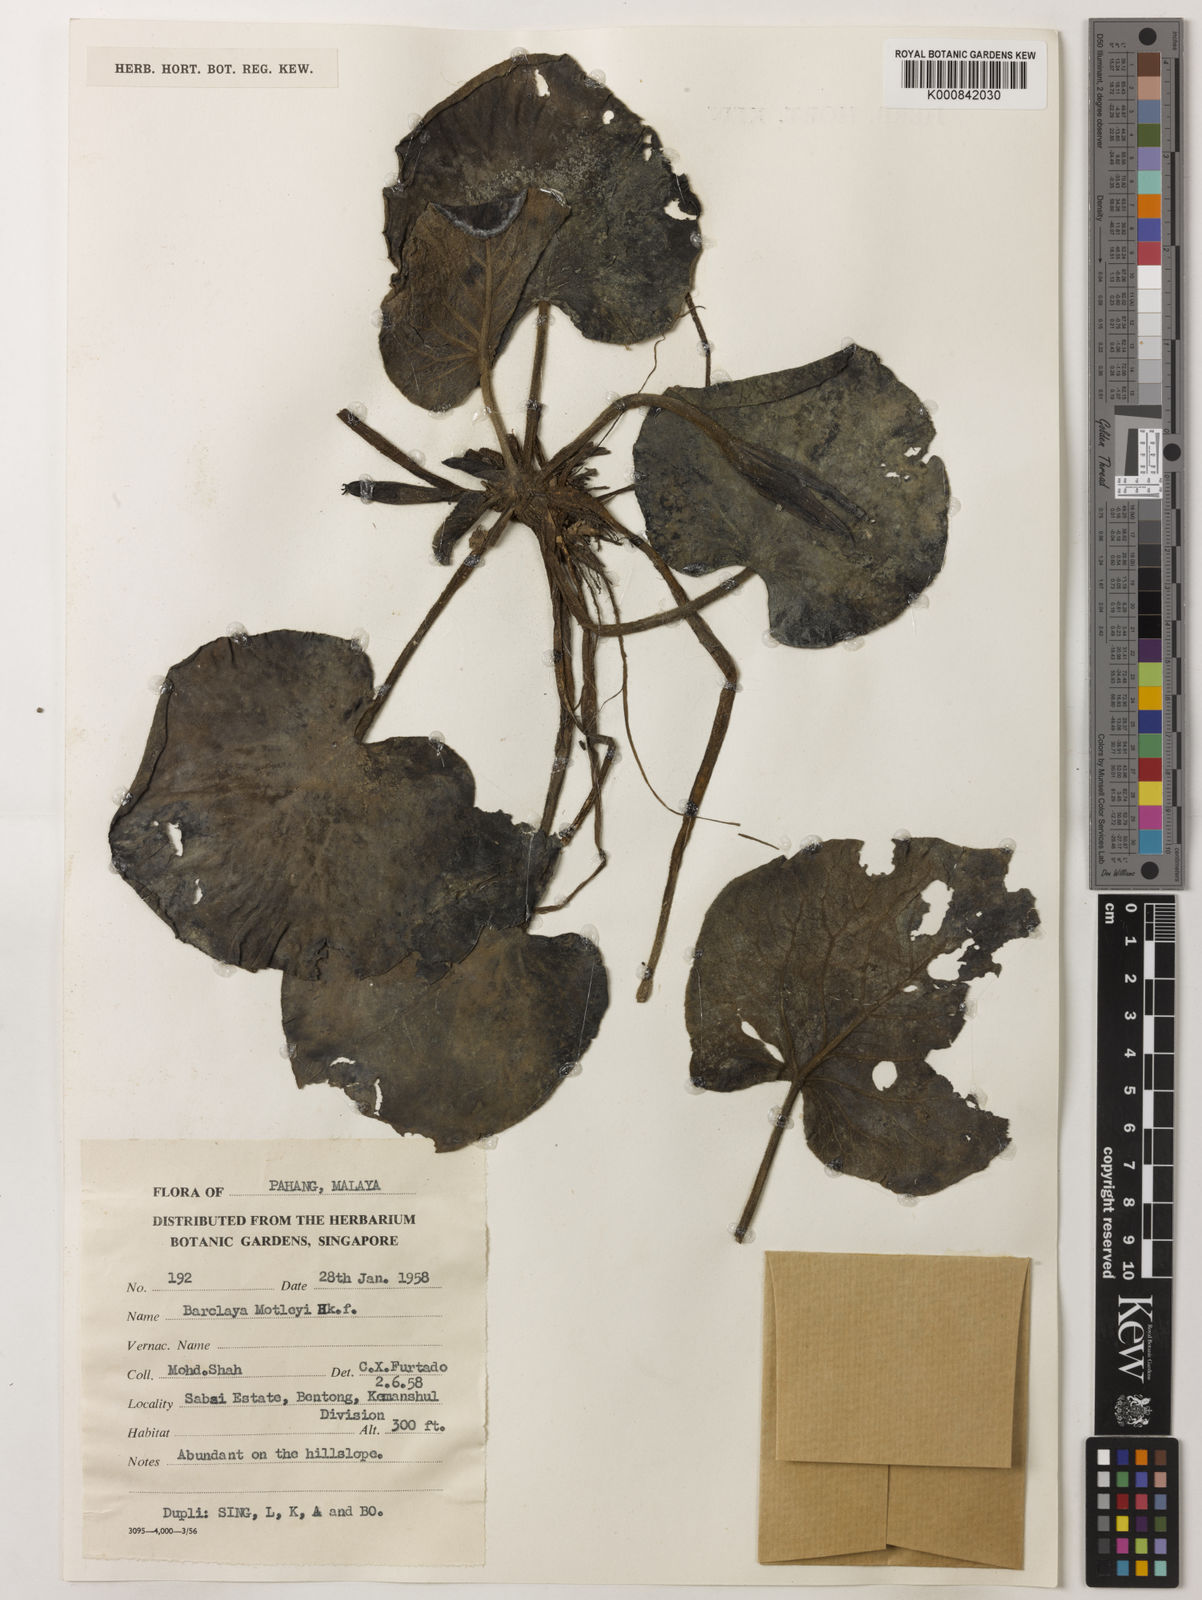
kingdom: Plantae
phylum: Tracheophyta
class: Magnoliopsida
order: Nymphaeales
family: Nymphaeaceae
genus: Barclaya
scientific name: Barclaya motleyi
